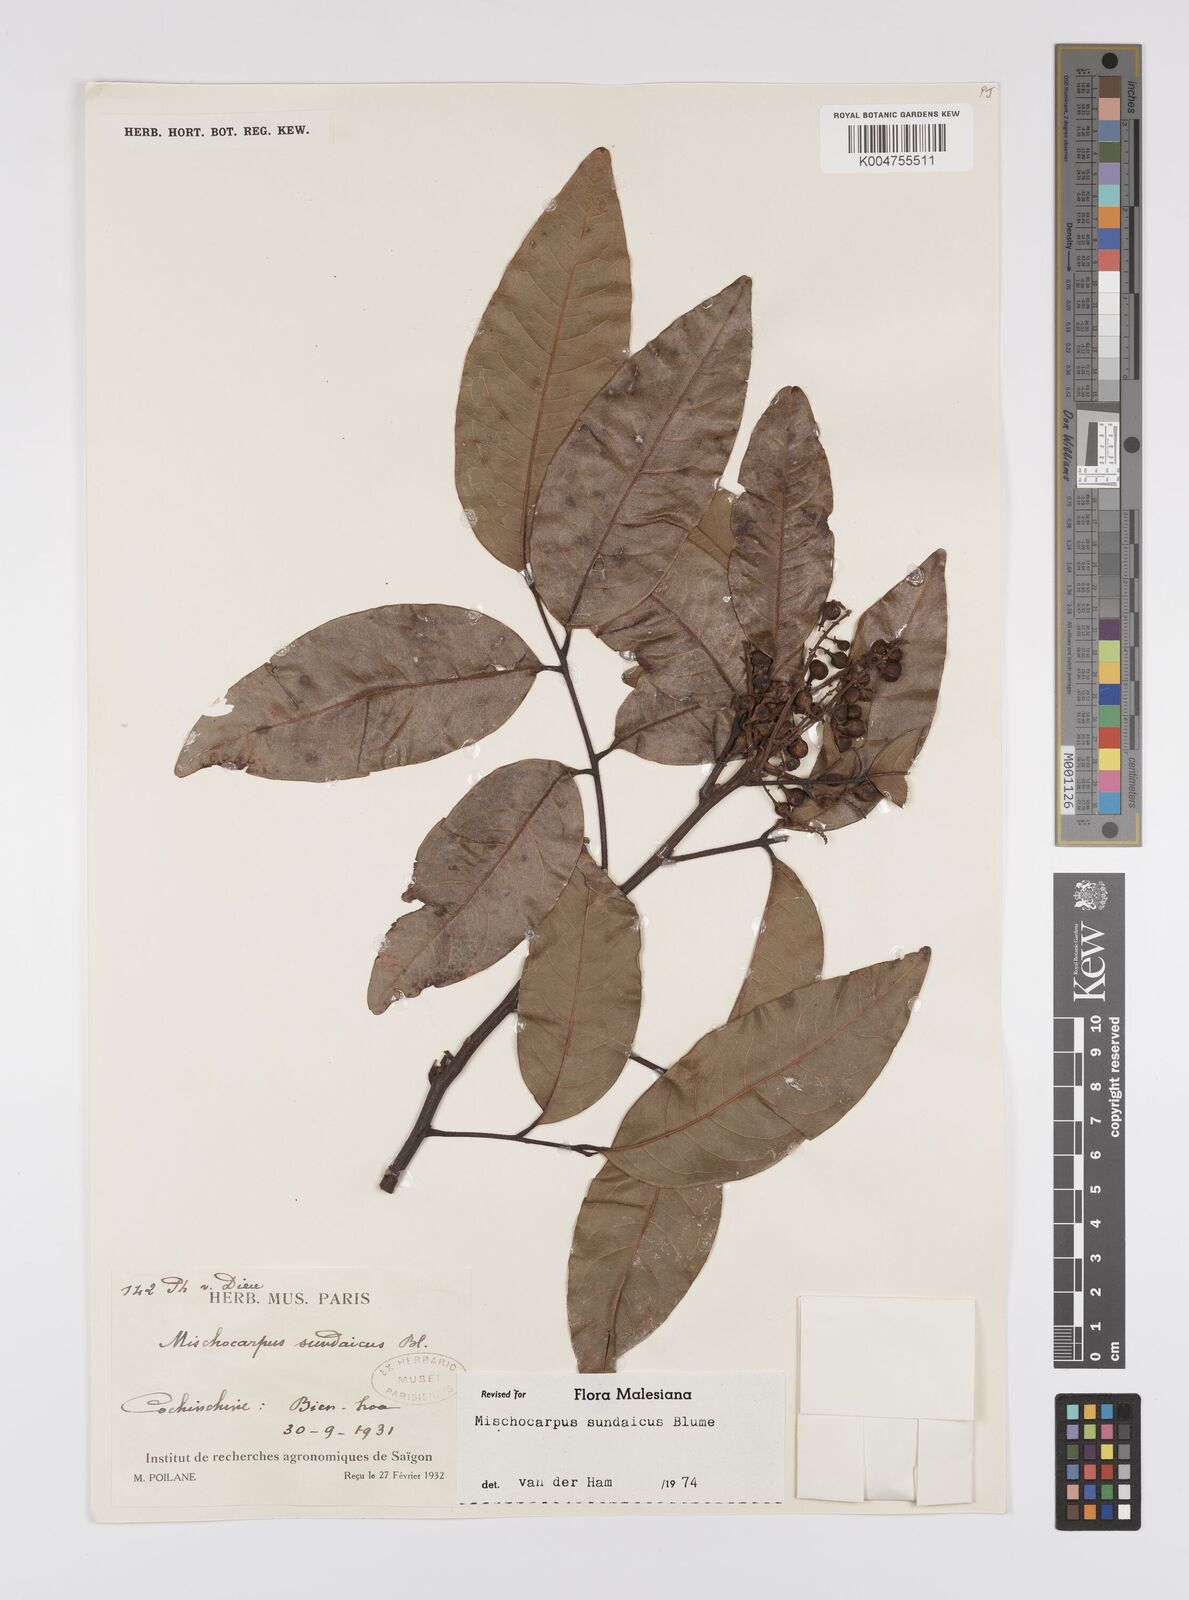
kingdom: Plantae
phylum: Tracheophyta
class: Magnoliopsida
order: Sapindales
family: Sapindaceae
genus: Mischocarpus
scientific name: Mischocarpus sundaicus
